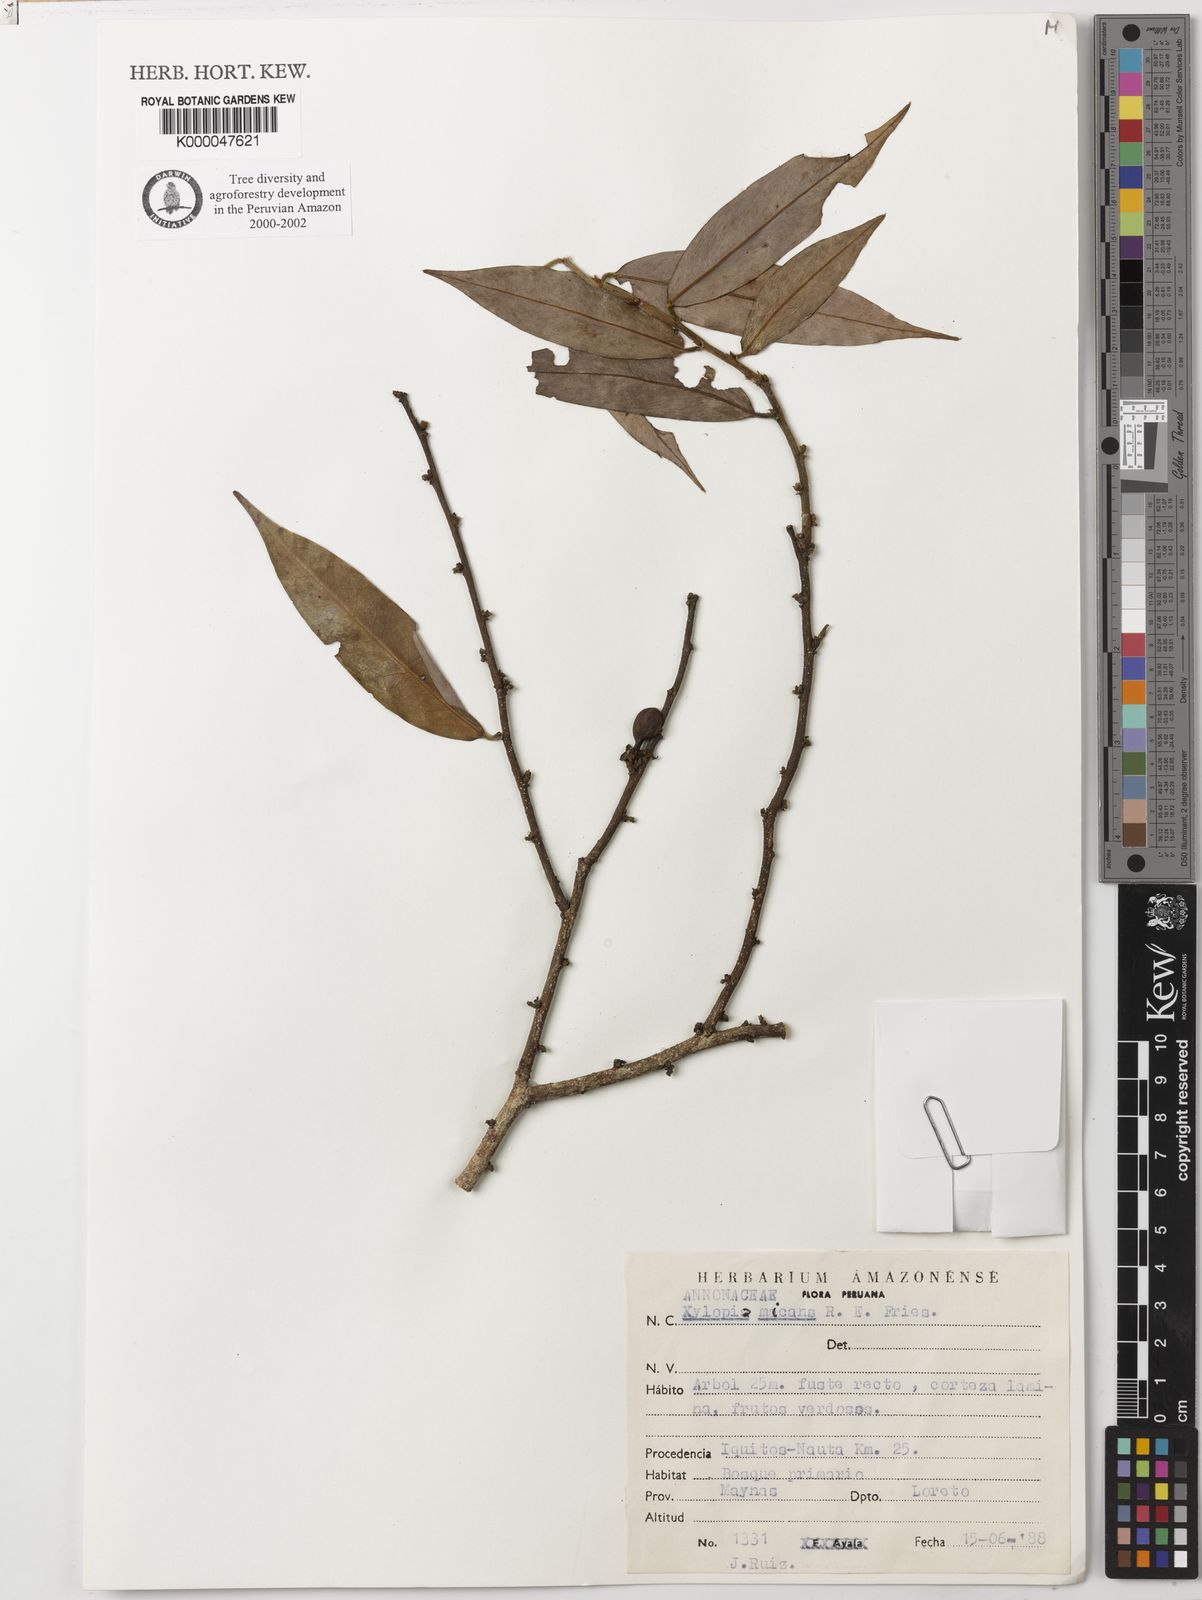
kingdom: Plantae
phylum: Tracheophyta
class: Magnoliopsida
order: Magnoliales
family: Annonaceae
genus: Xylopia
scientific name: Xylopia micans
